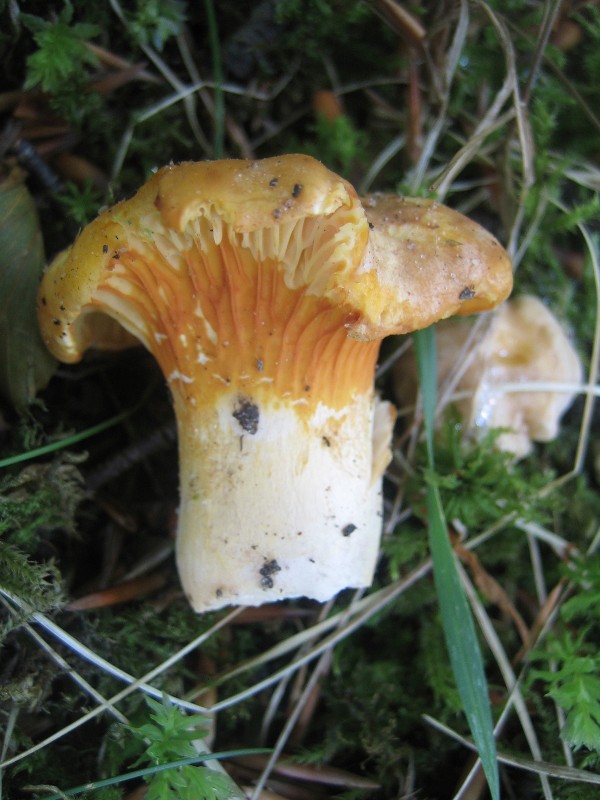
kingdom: Fungi
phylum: Basidiomycota
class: Agaricomycetes
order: Cantharellales
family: Hydnaceae
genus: Cantharellus
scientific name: Cantharellus pallens
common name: bleg kantarel
